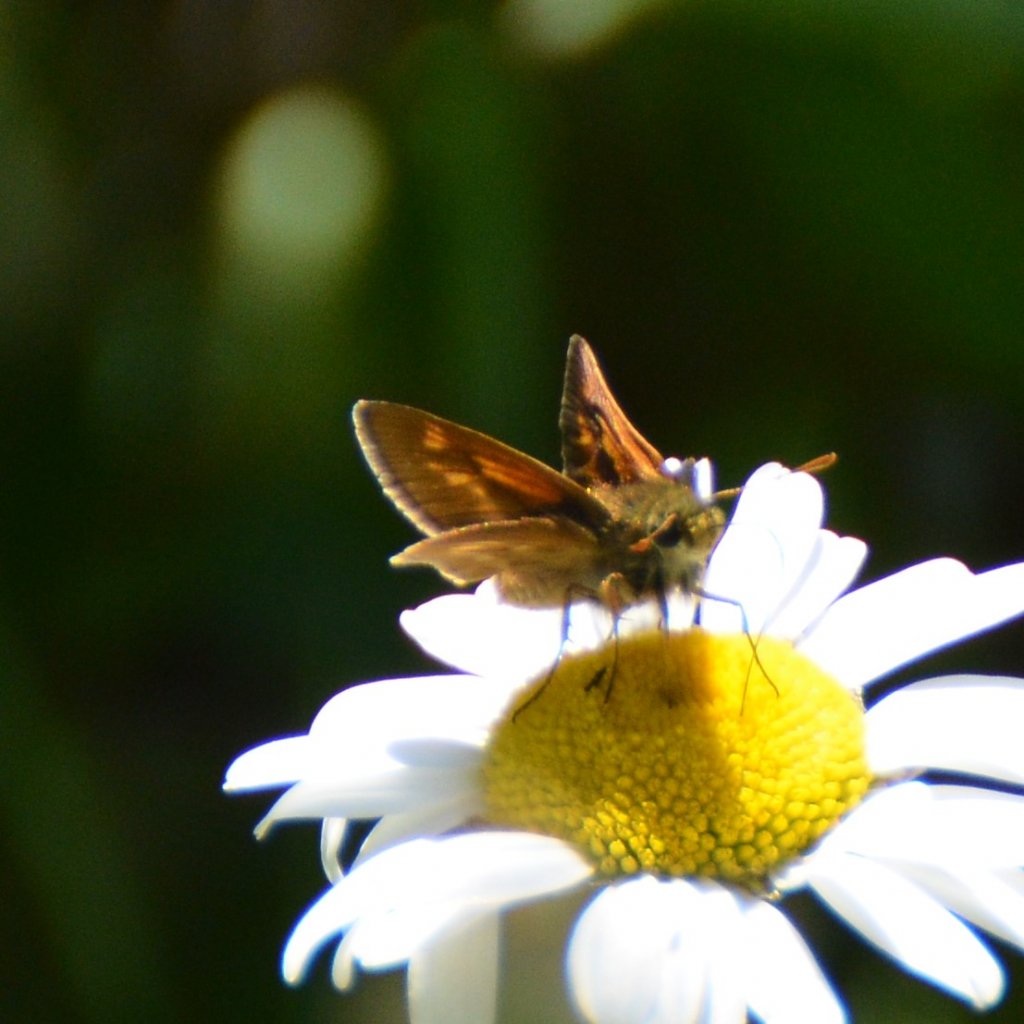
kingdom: Animalia
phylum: Arthropoda
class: Insecta
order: Lepidoptera
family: Hesperiidae
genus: Polites
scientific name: Polites
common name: Long Dash Skipper
